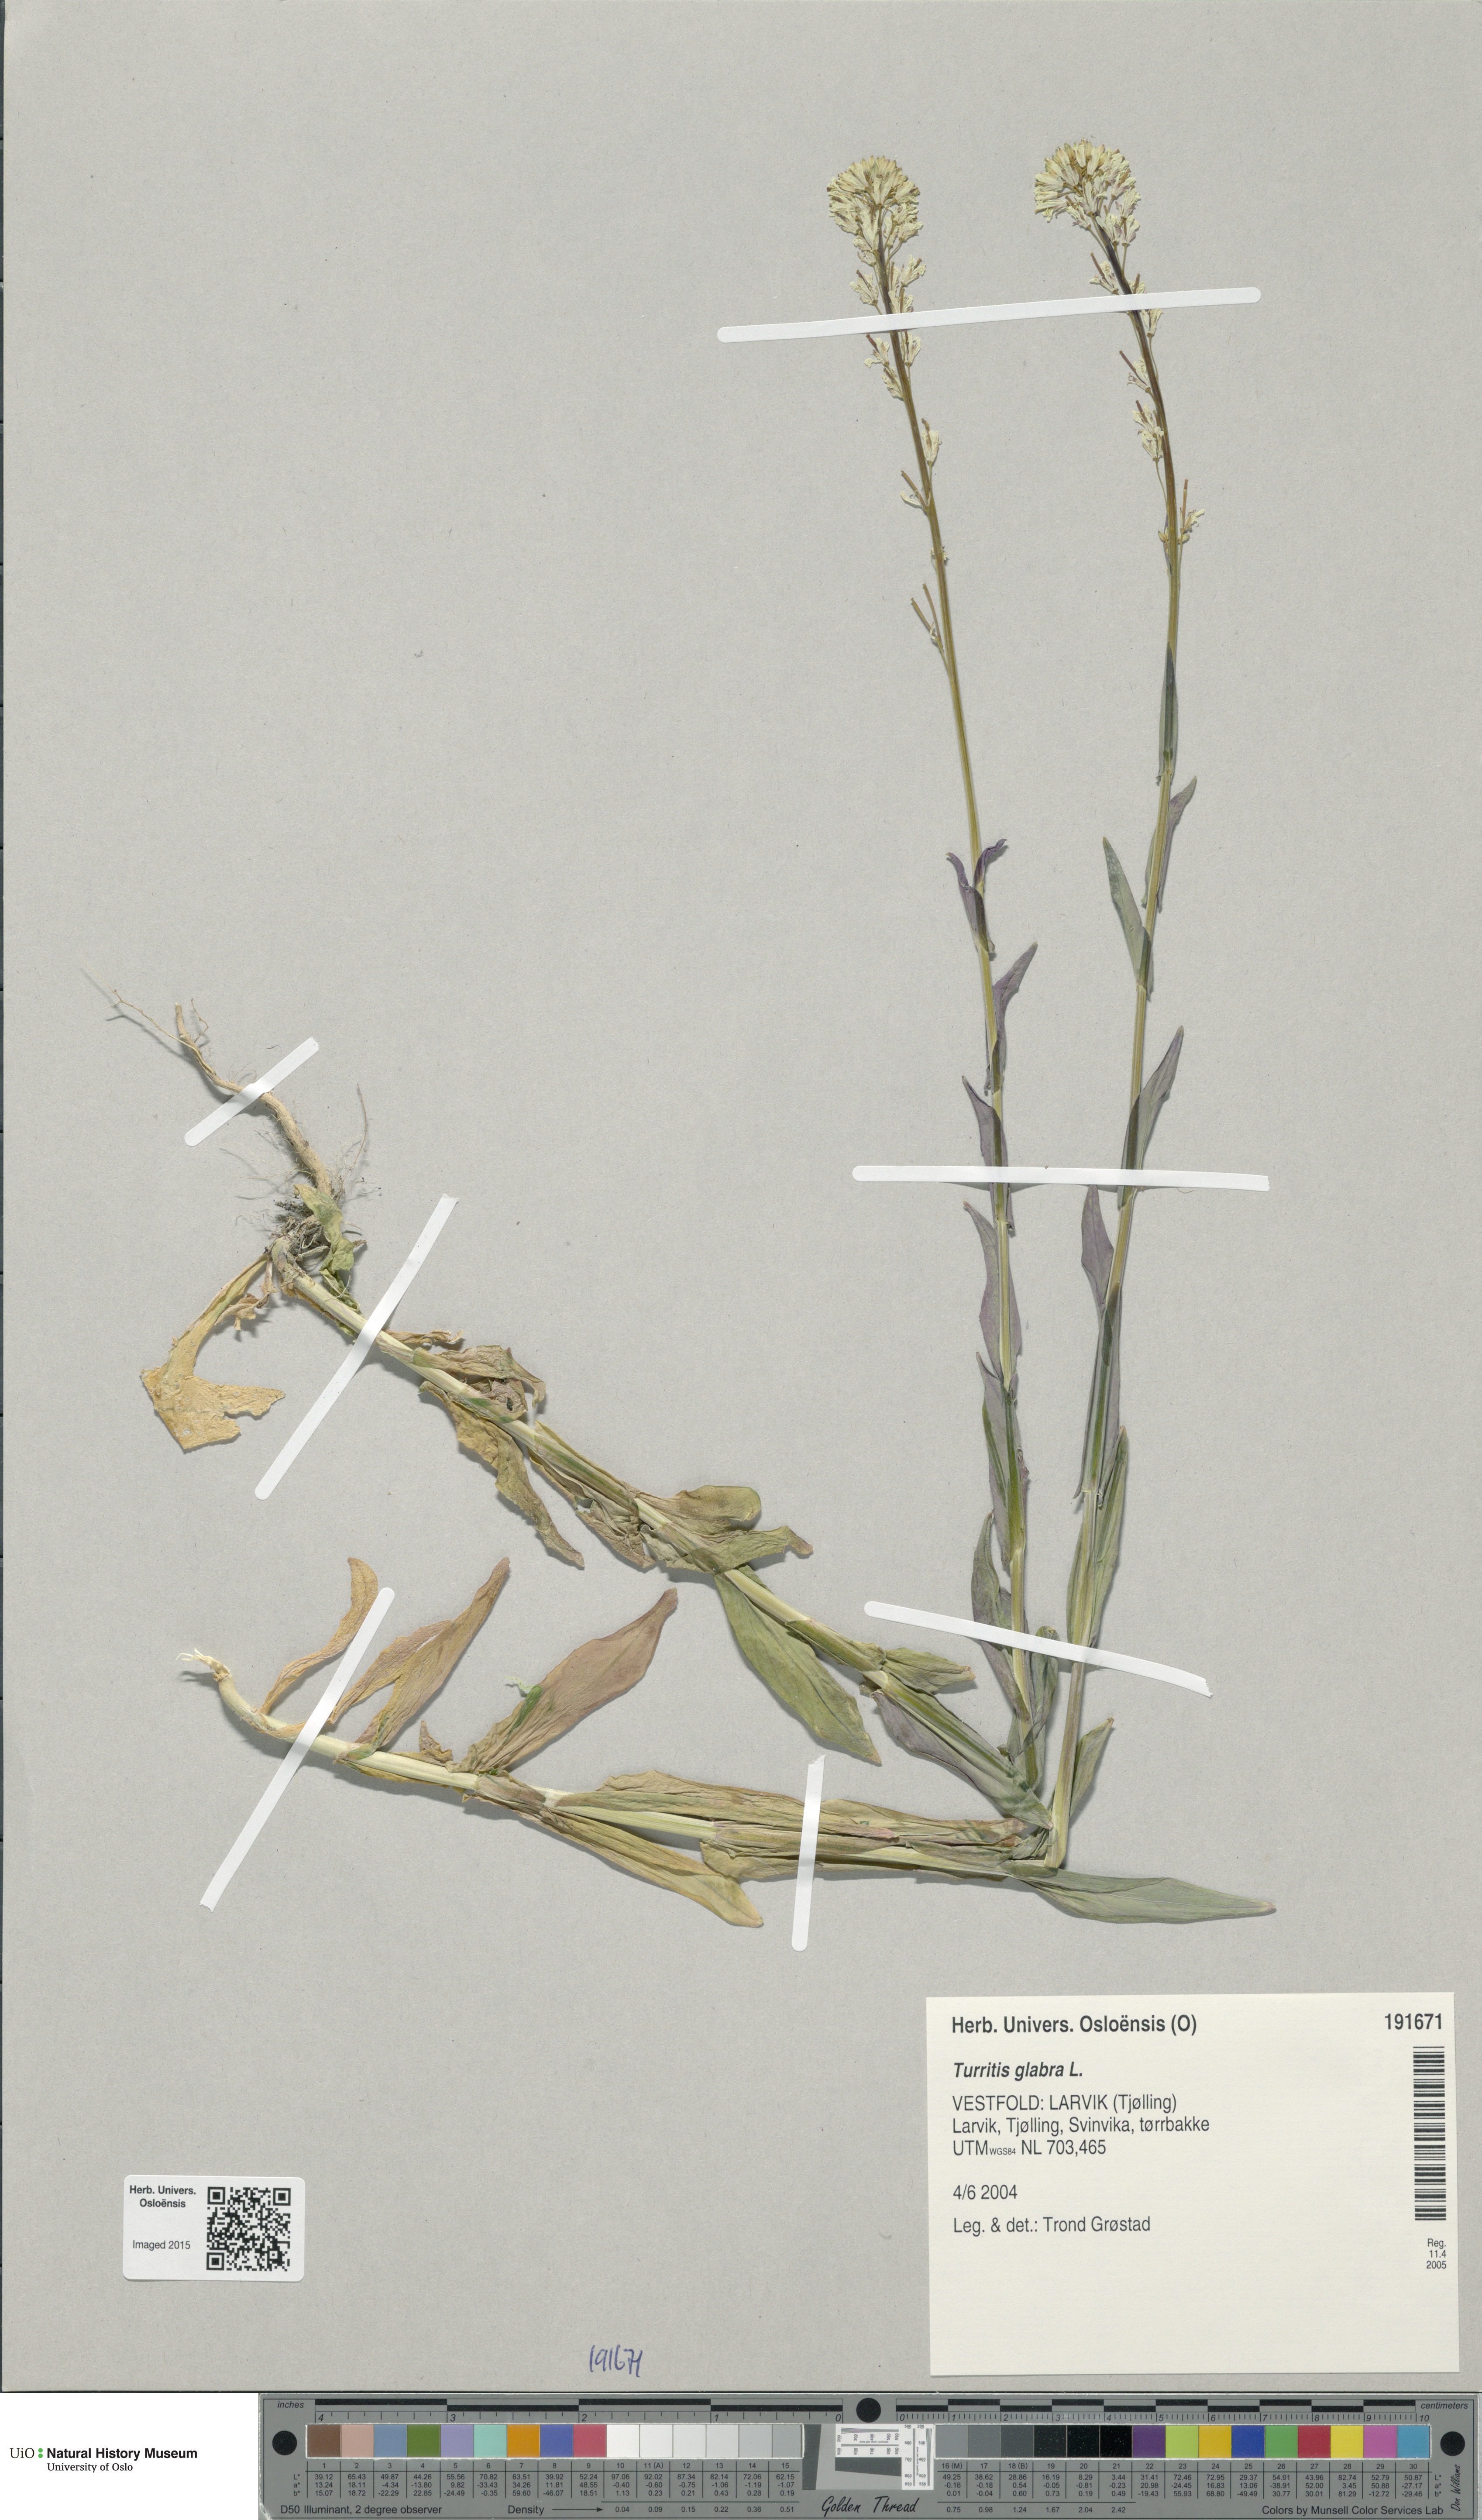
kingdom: Plantae
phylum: Tracheophyta
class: Magnoliopsida
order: Brassicales
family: Brassicaceae
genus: Turritis
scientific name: Turritis glabra
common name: Tower rockcress
